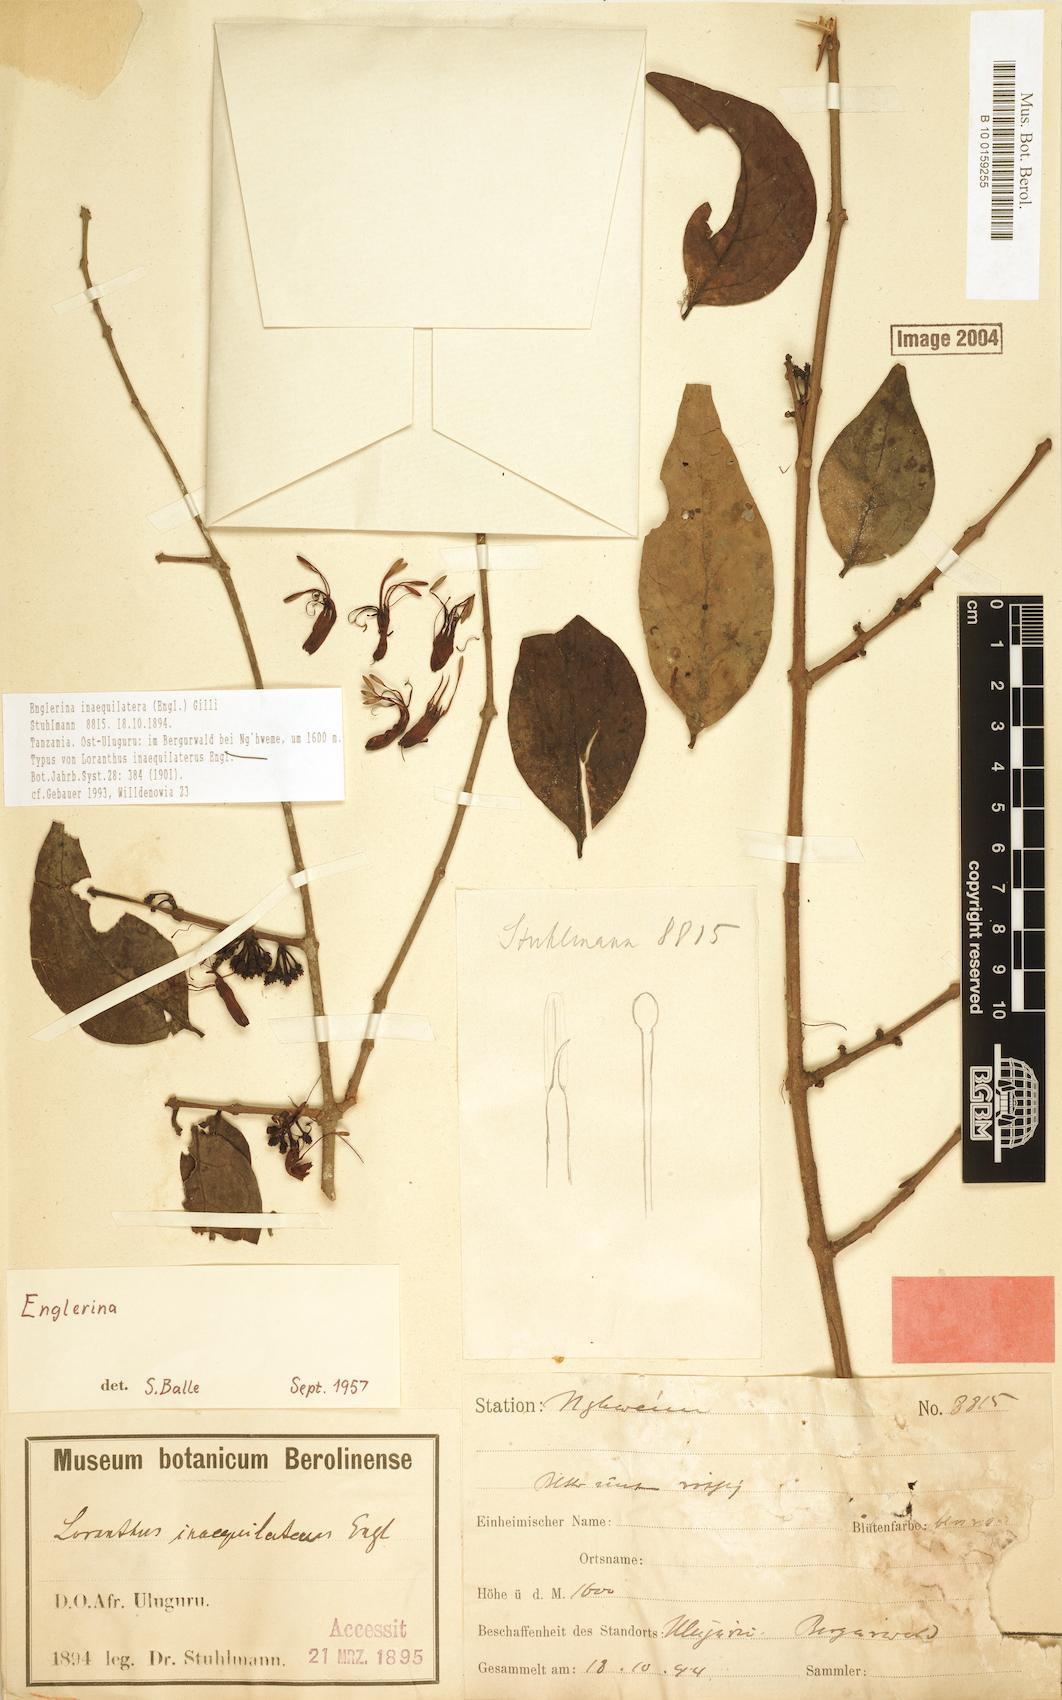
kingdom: Plantae
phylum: Tracheophyta
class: Magnoliopsida
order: Santalales
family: Loranthaceae
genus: Englerina
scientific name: Englerina inaequilatera
